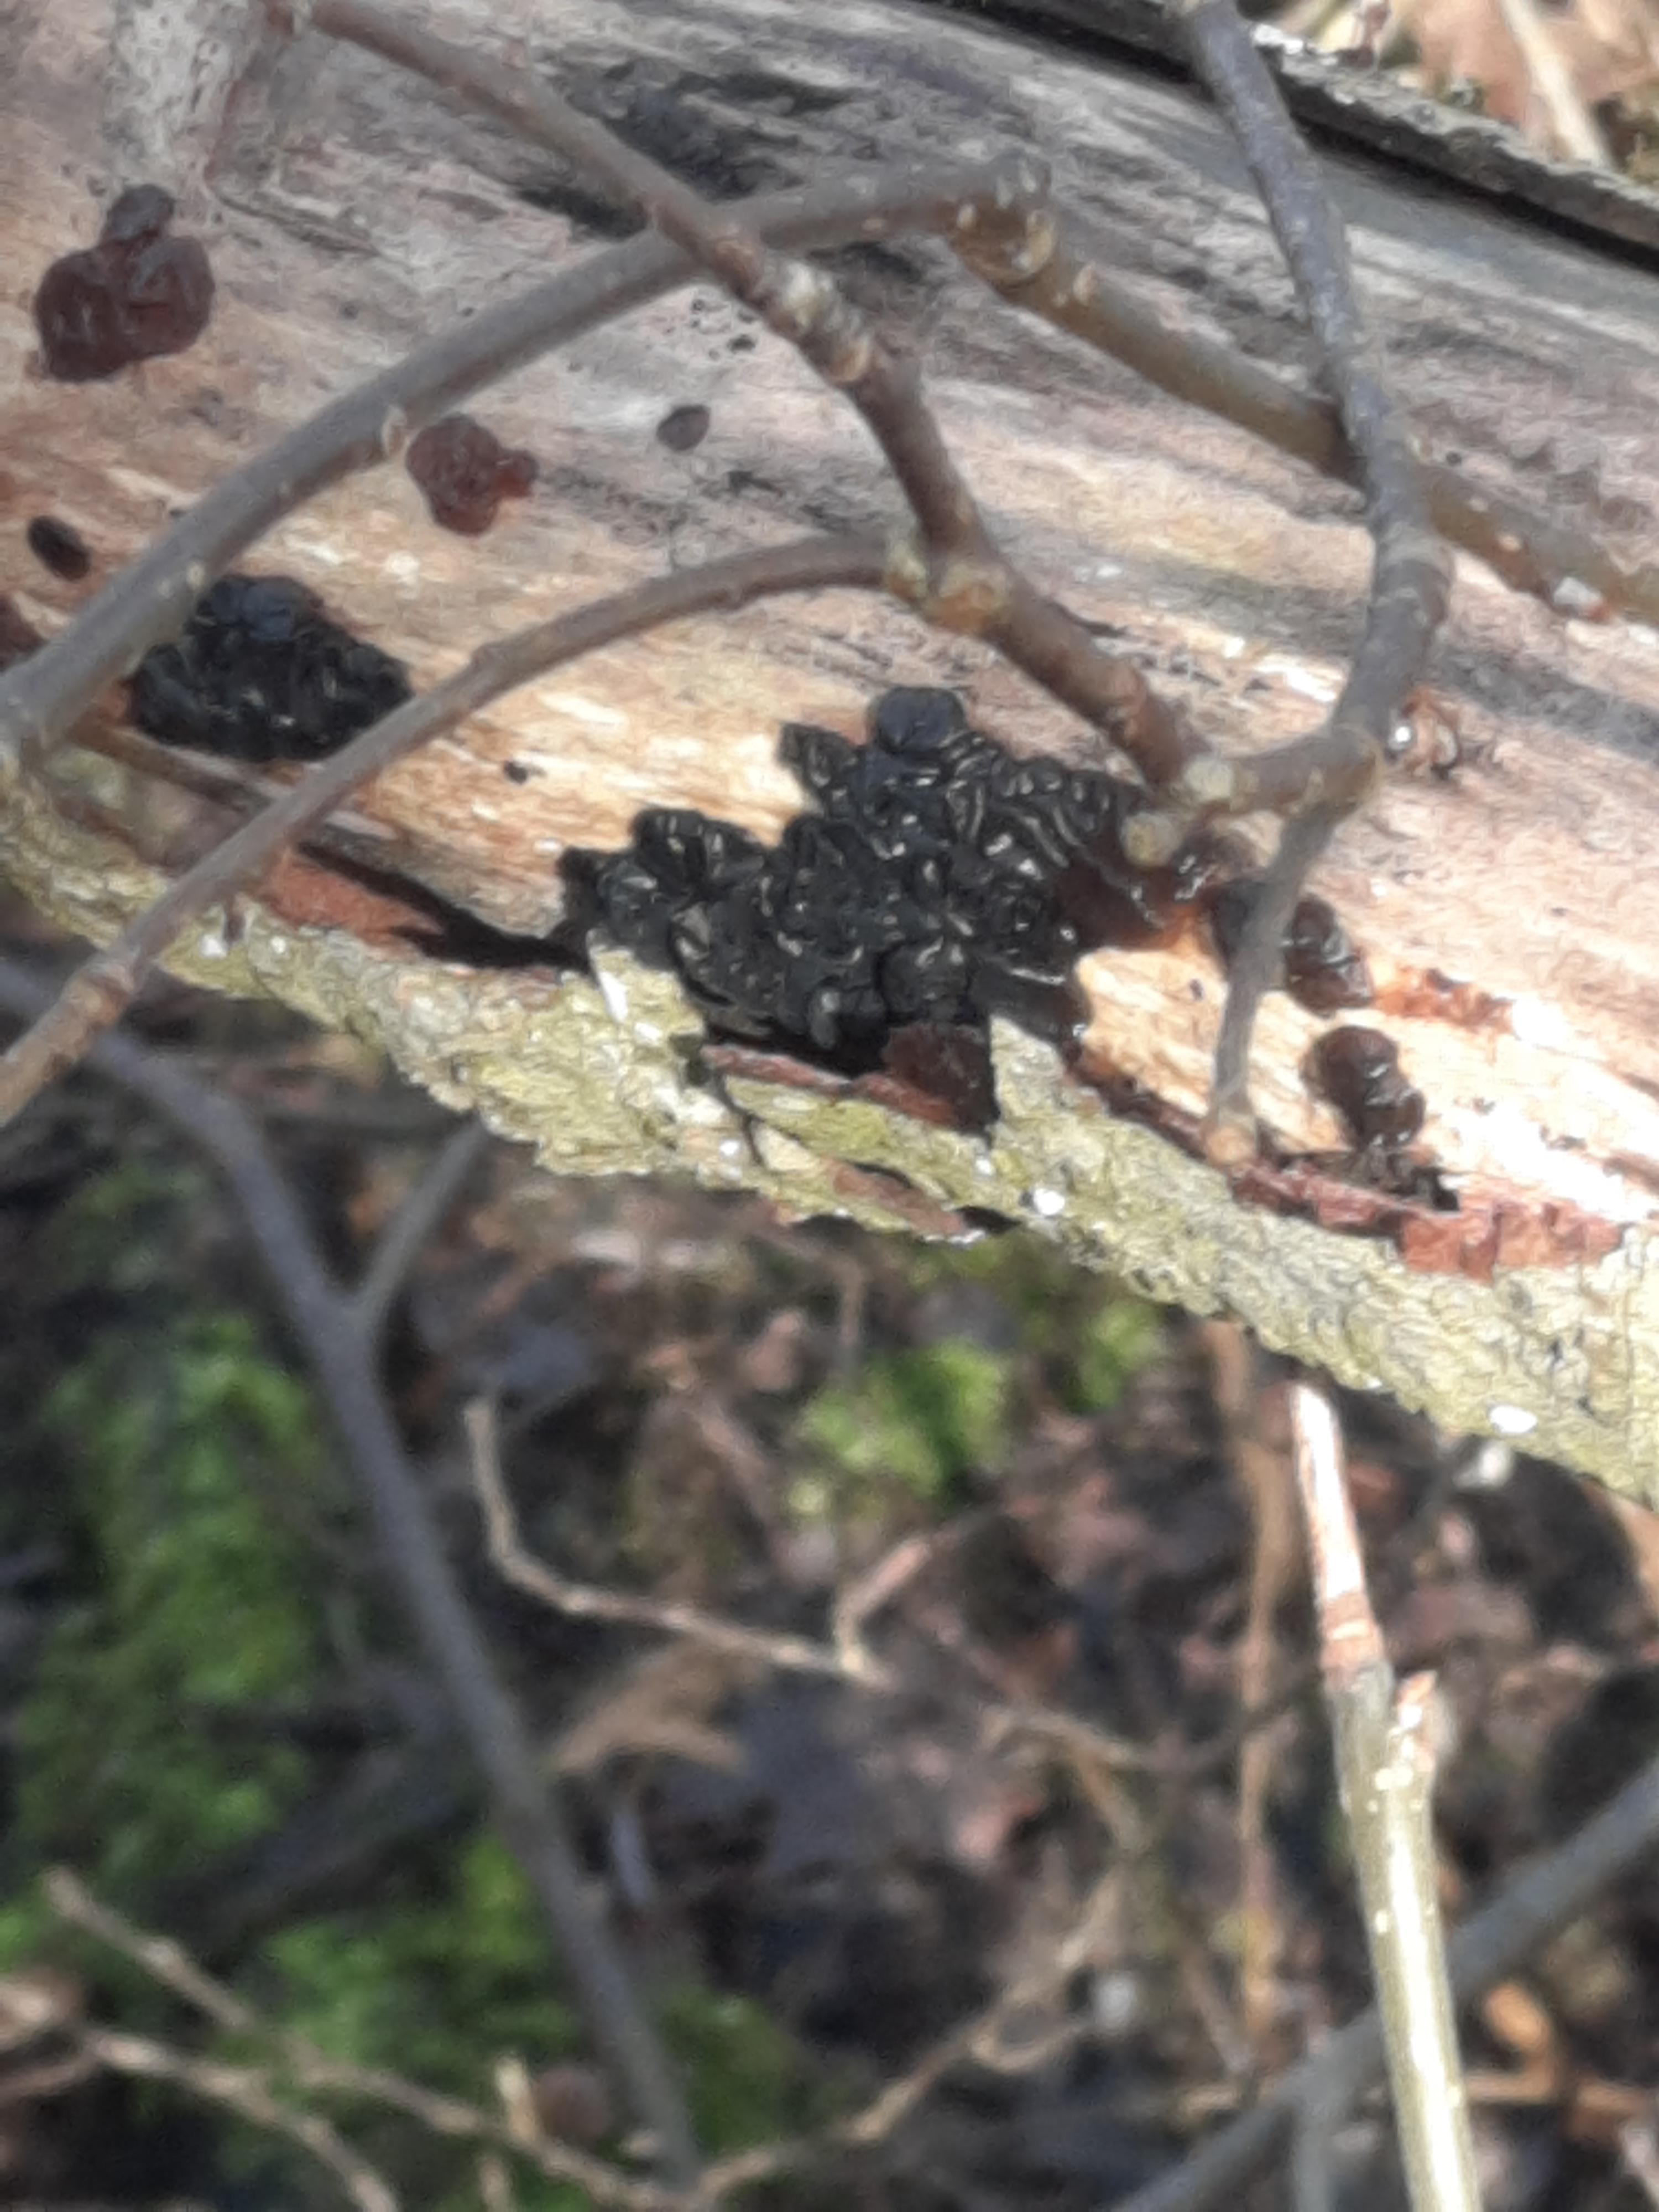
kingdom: Fungi
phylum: Basidiomycota
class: Agaricomycetes
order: Auriculariales
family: Auriculariaceae
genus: Exidia
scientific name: Exidia nigricans
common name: almindelig bævretop
